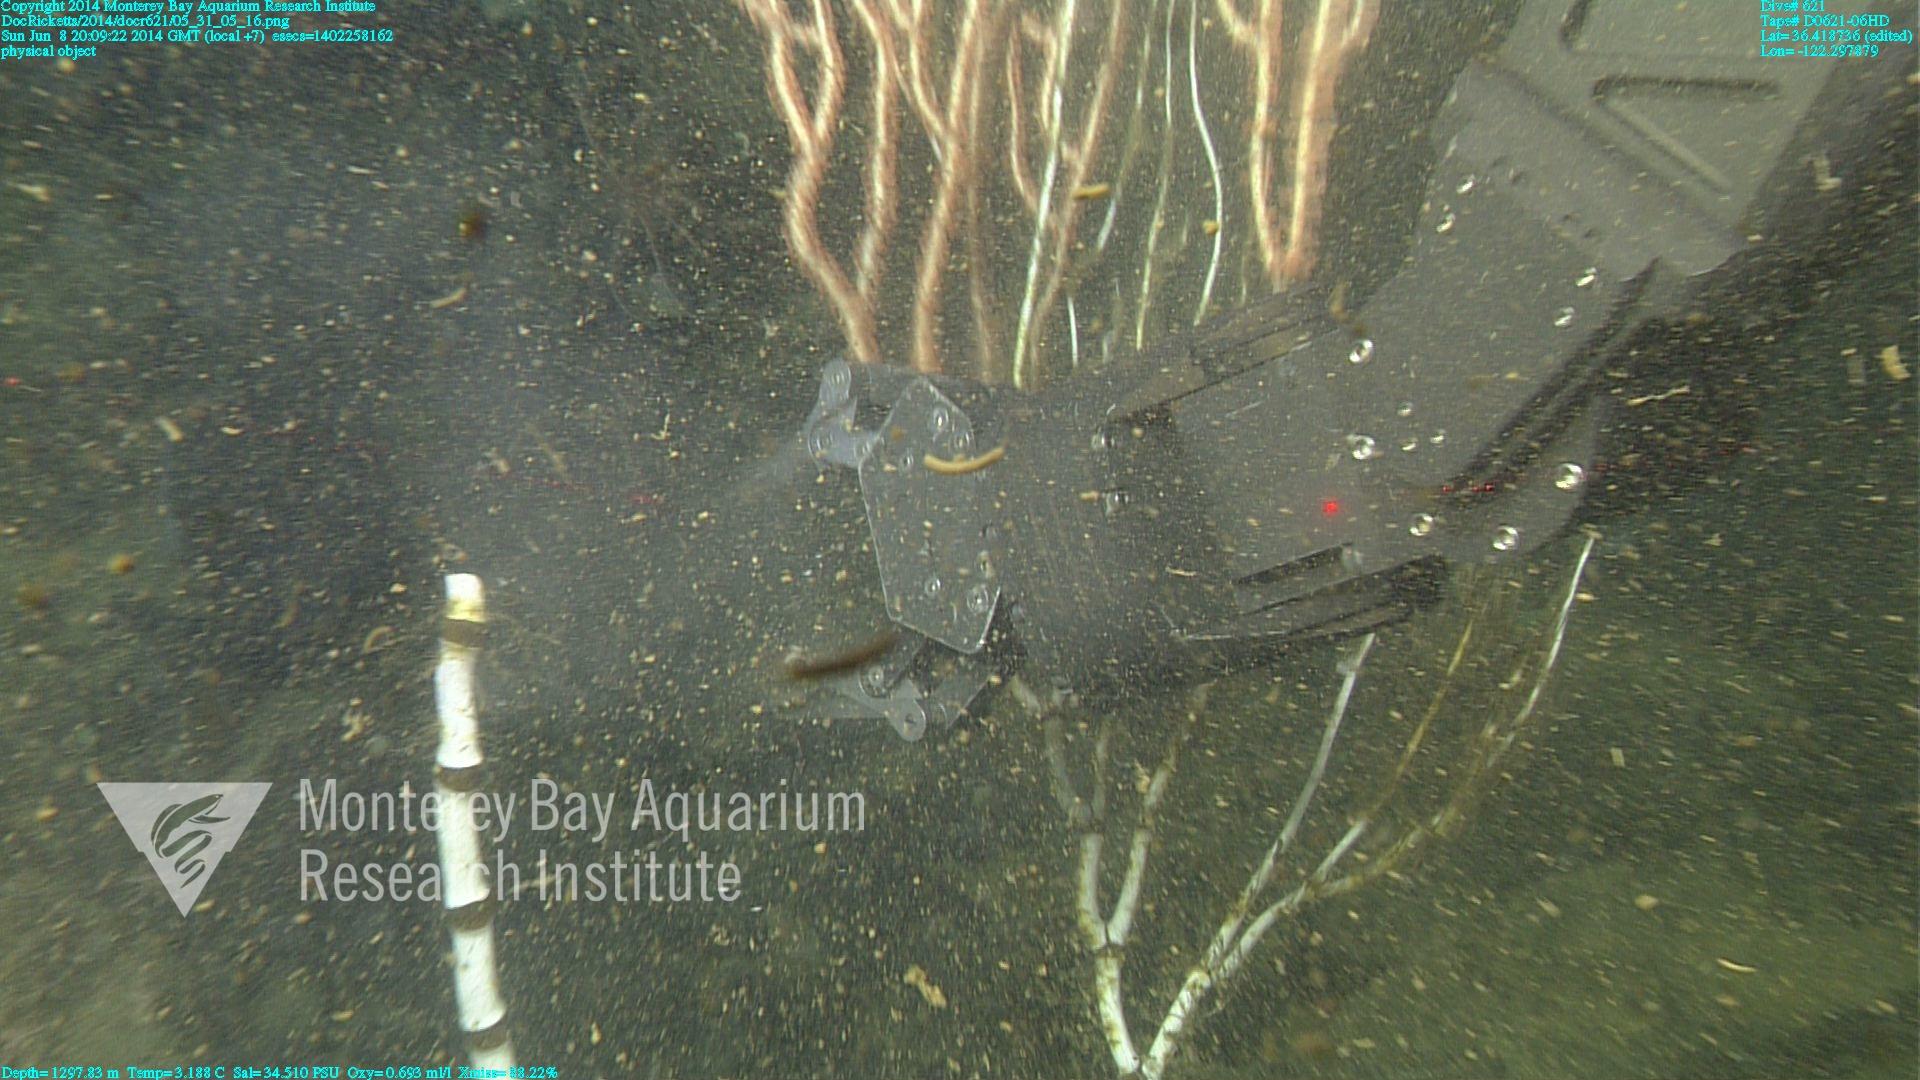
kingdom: Animalia
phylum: Cnidaria
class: Anthozoa
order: Scleralcyonacea
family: Keratoisididae
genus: Isidella
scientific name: Isidella
